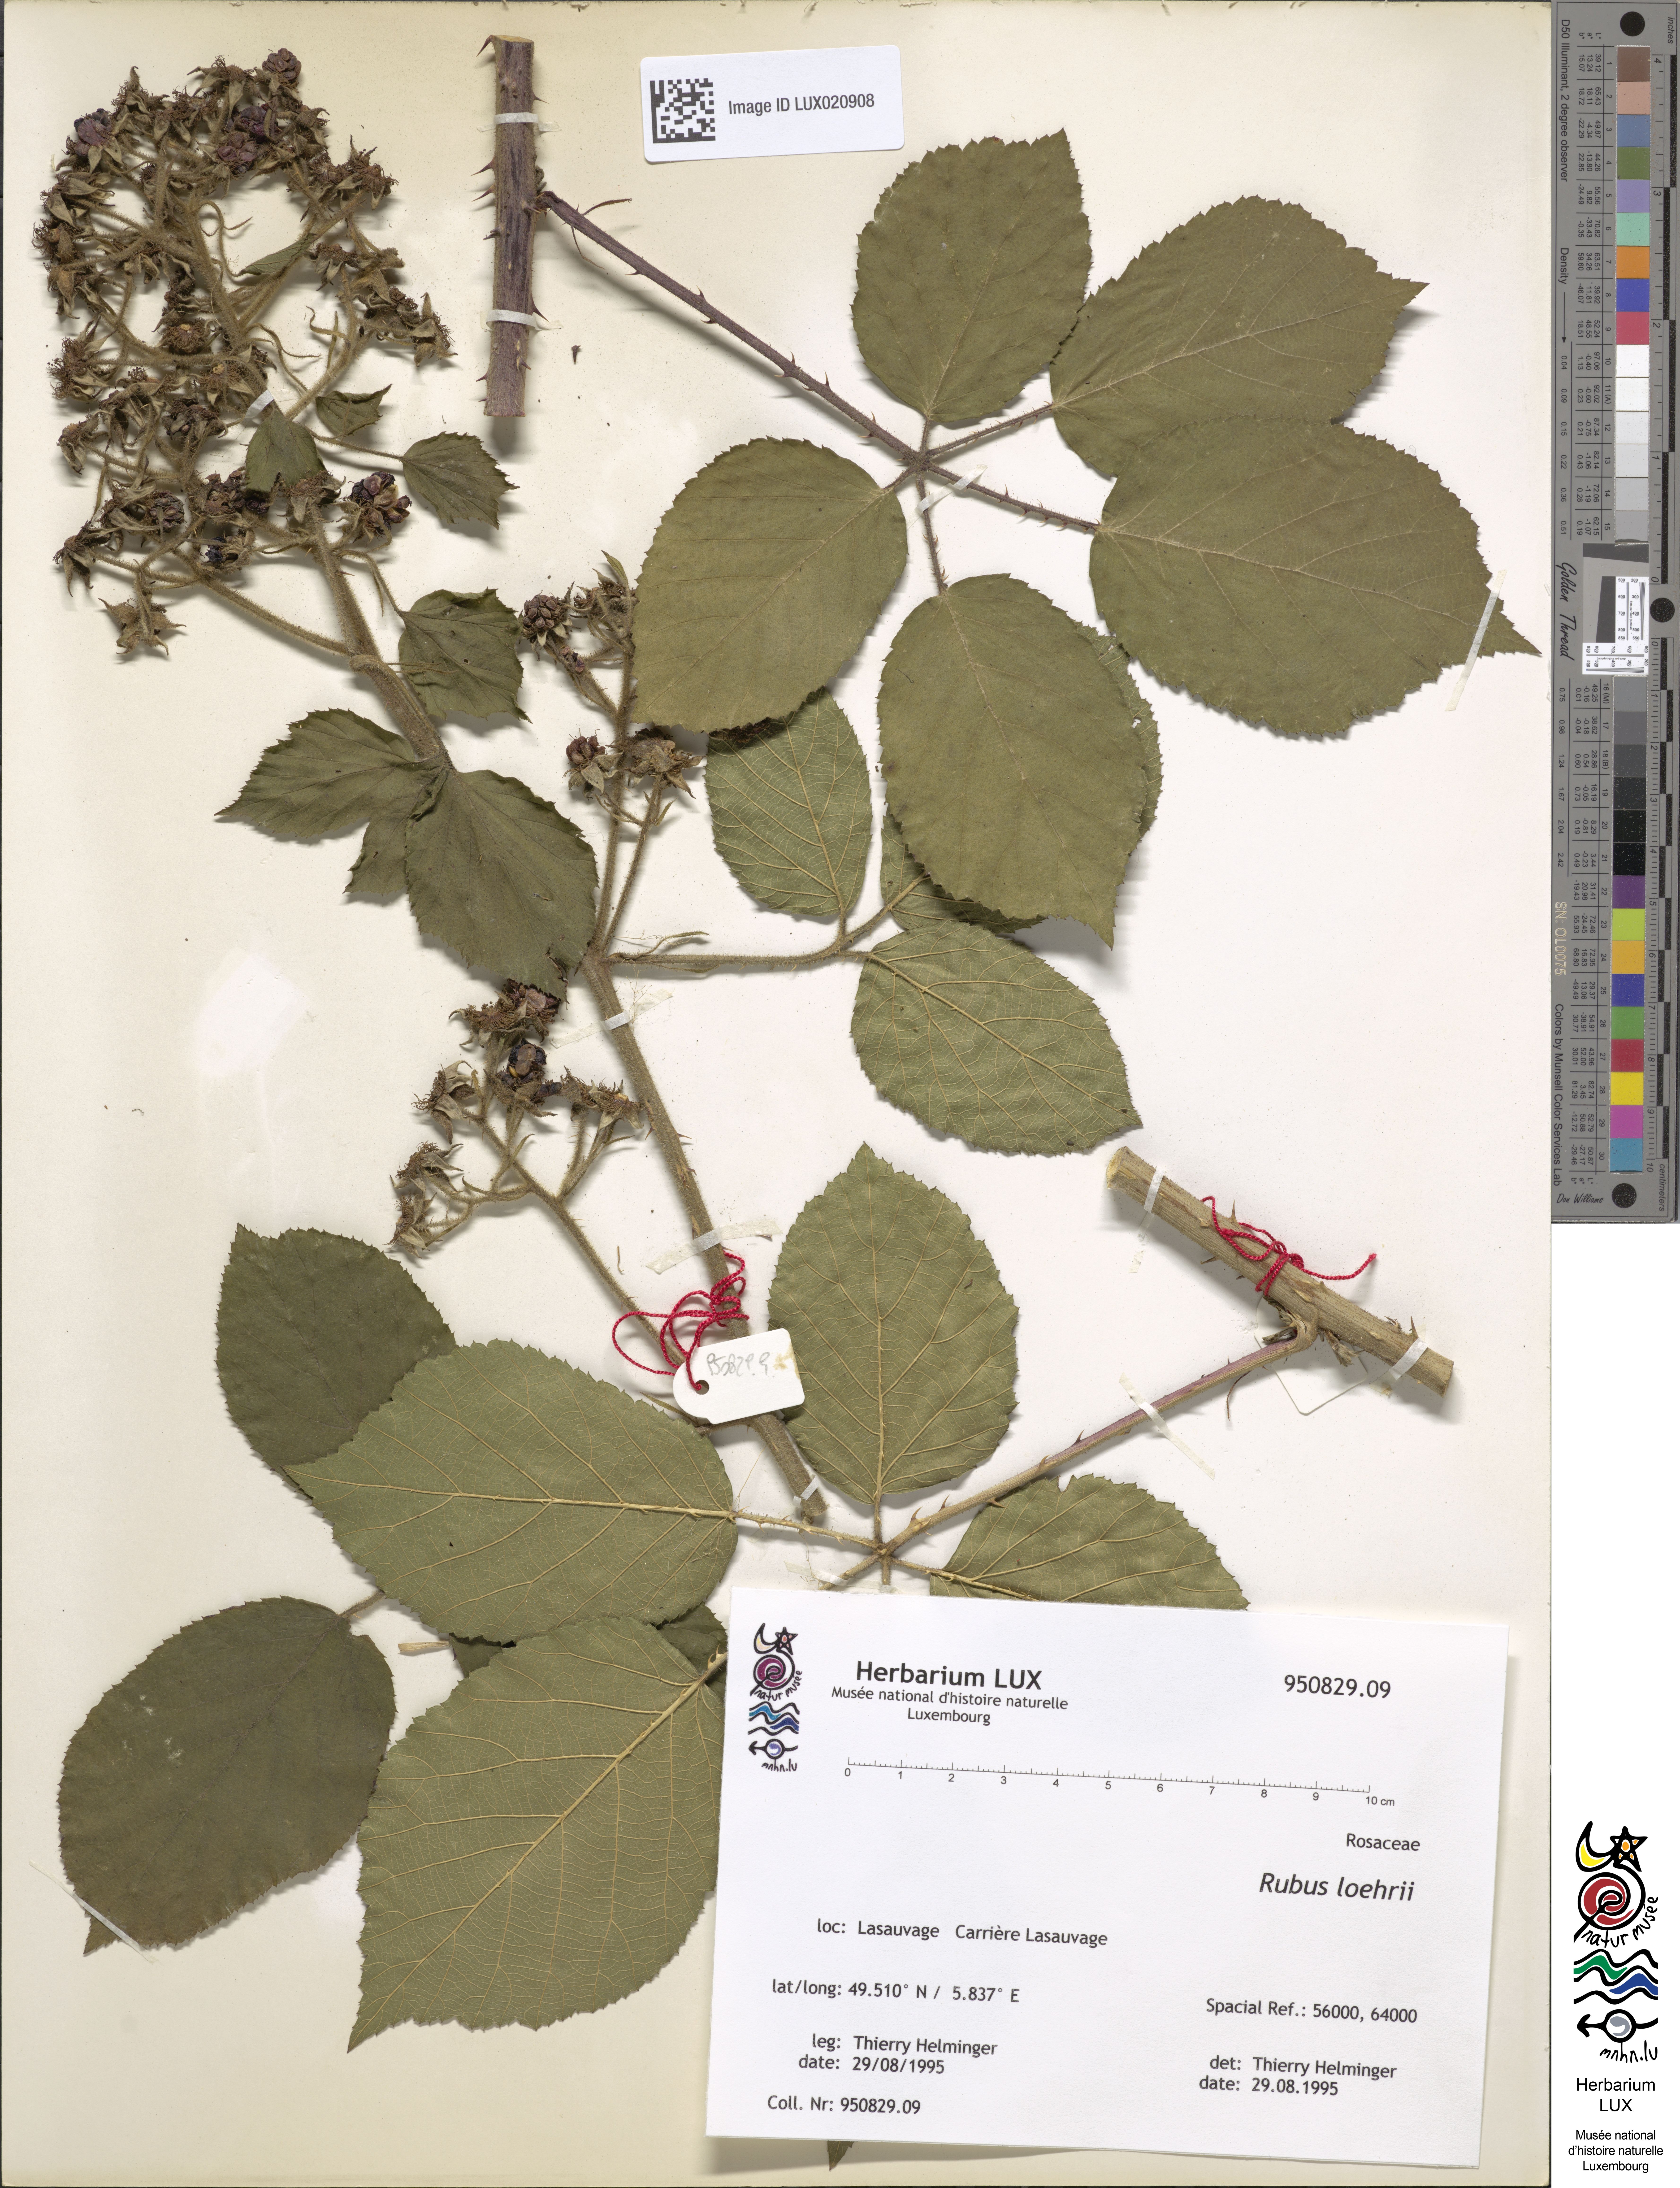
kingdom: Plantae
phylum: Tracheophyta
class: Magnoliopsida
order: Rosales
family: Rosaceae
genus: Rubus
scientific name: Rubus loehrii
